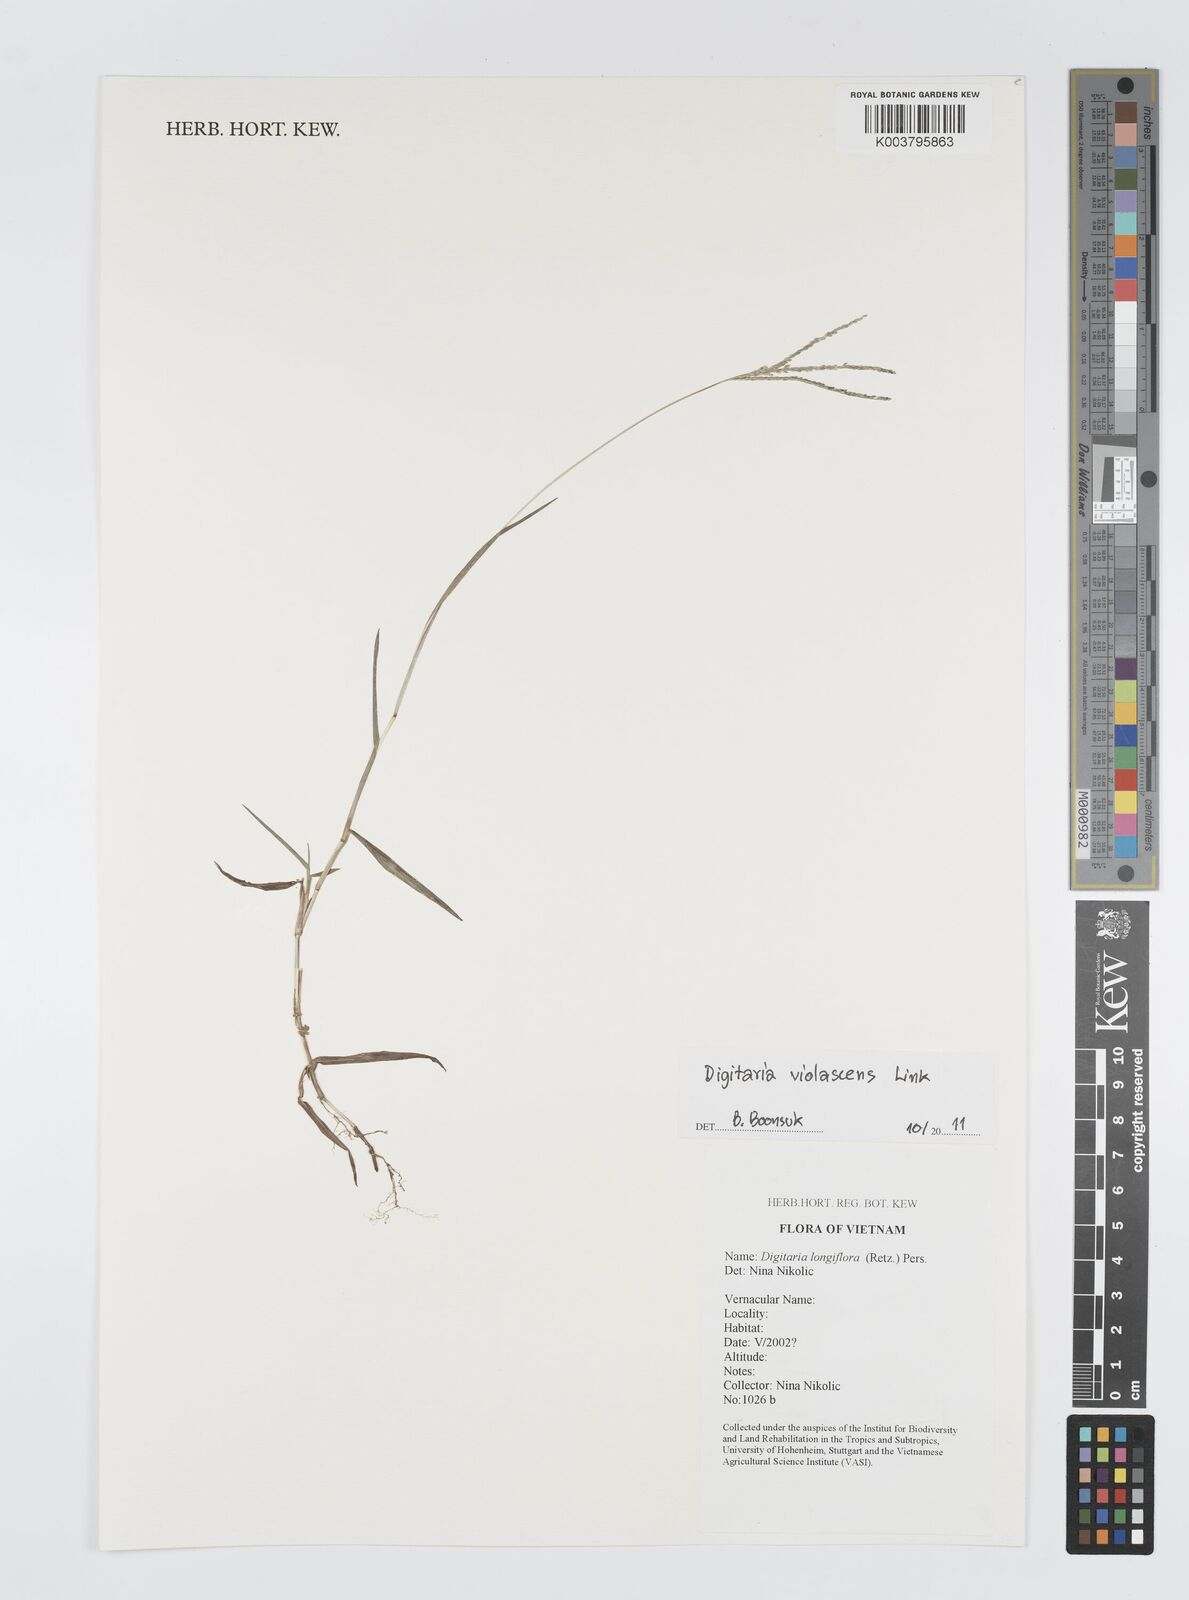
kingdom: Plantae
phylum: Tracheophyta
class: Liliopsida
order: Poales
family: Poaceae
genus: Digitaria
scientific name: Digitaria violascens
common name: Violet crabgrass
